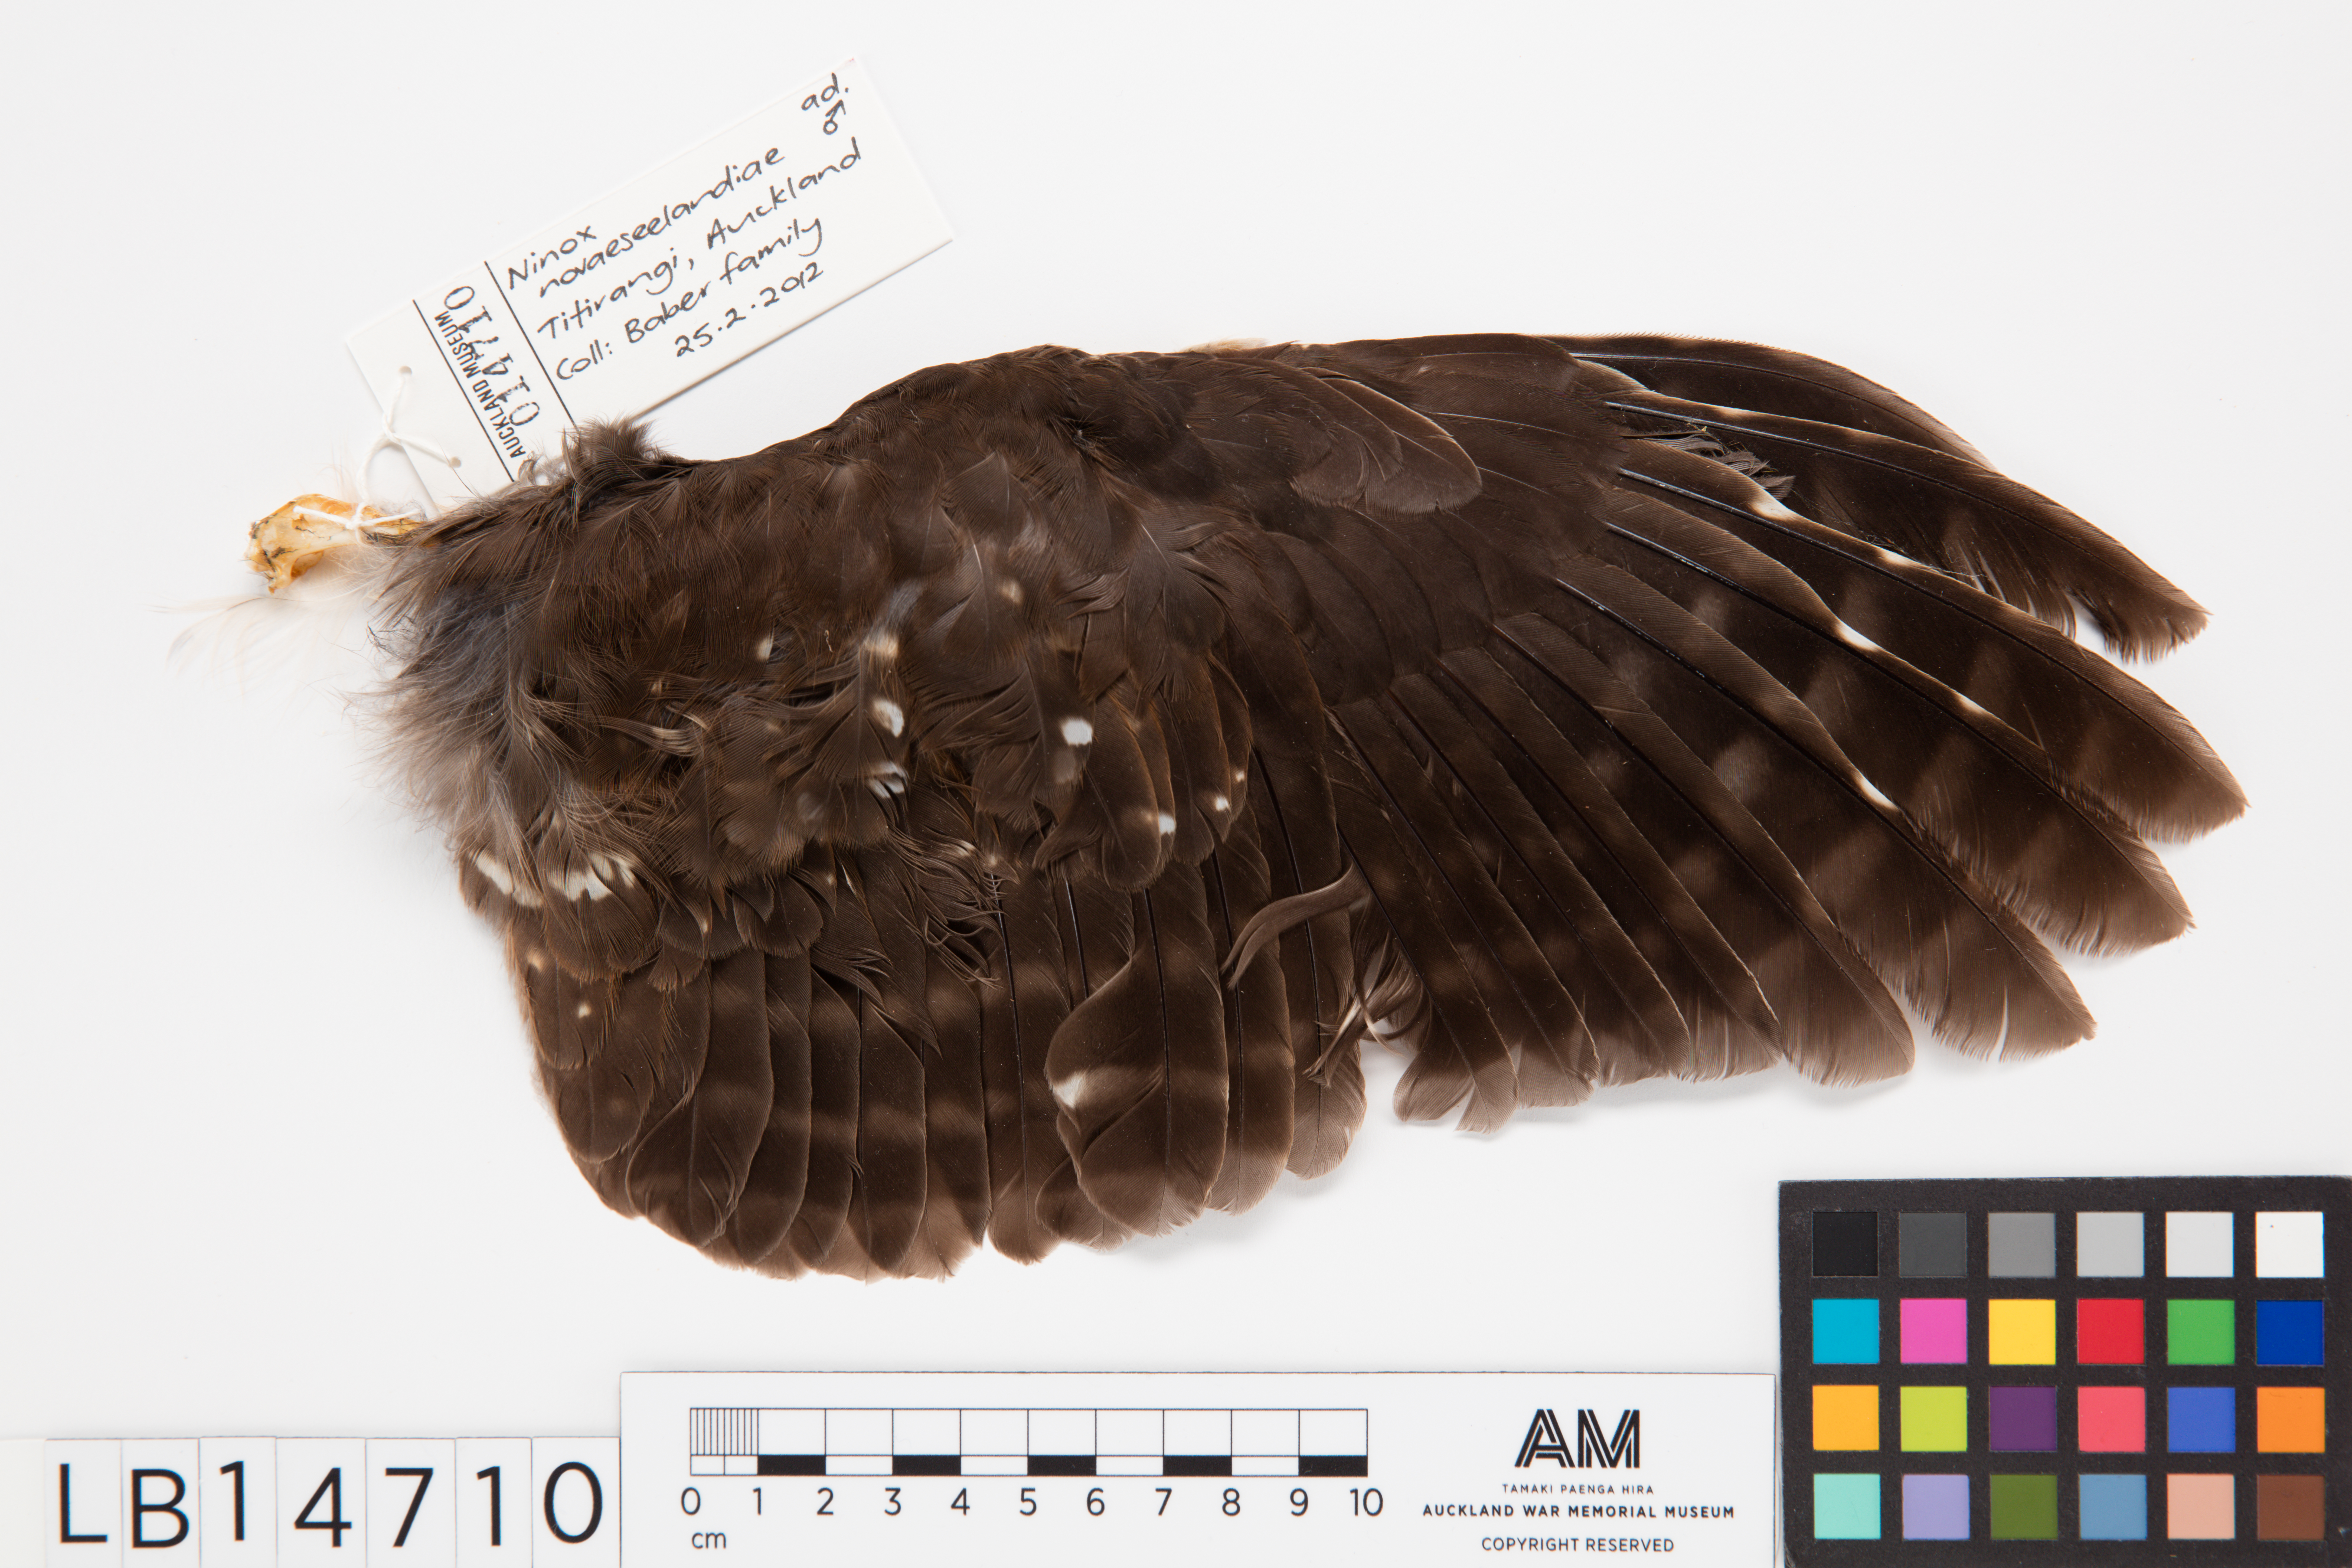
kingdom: Animalia
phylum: Chordata
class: Aves
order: Strigiformes
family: Strigidae
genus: Ninox
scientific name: Ninox novaeseelandiae
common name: Morepork
